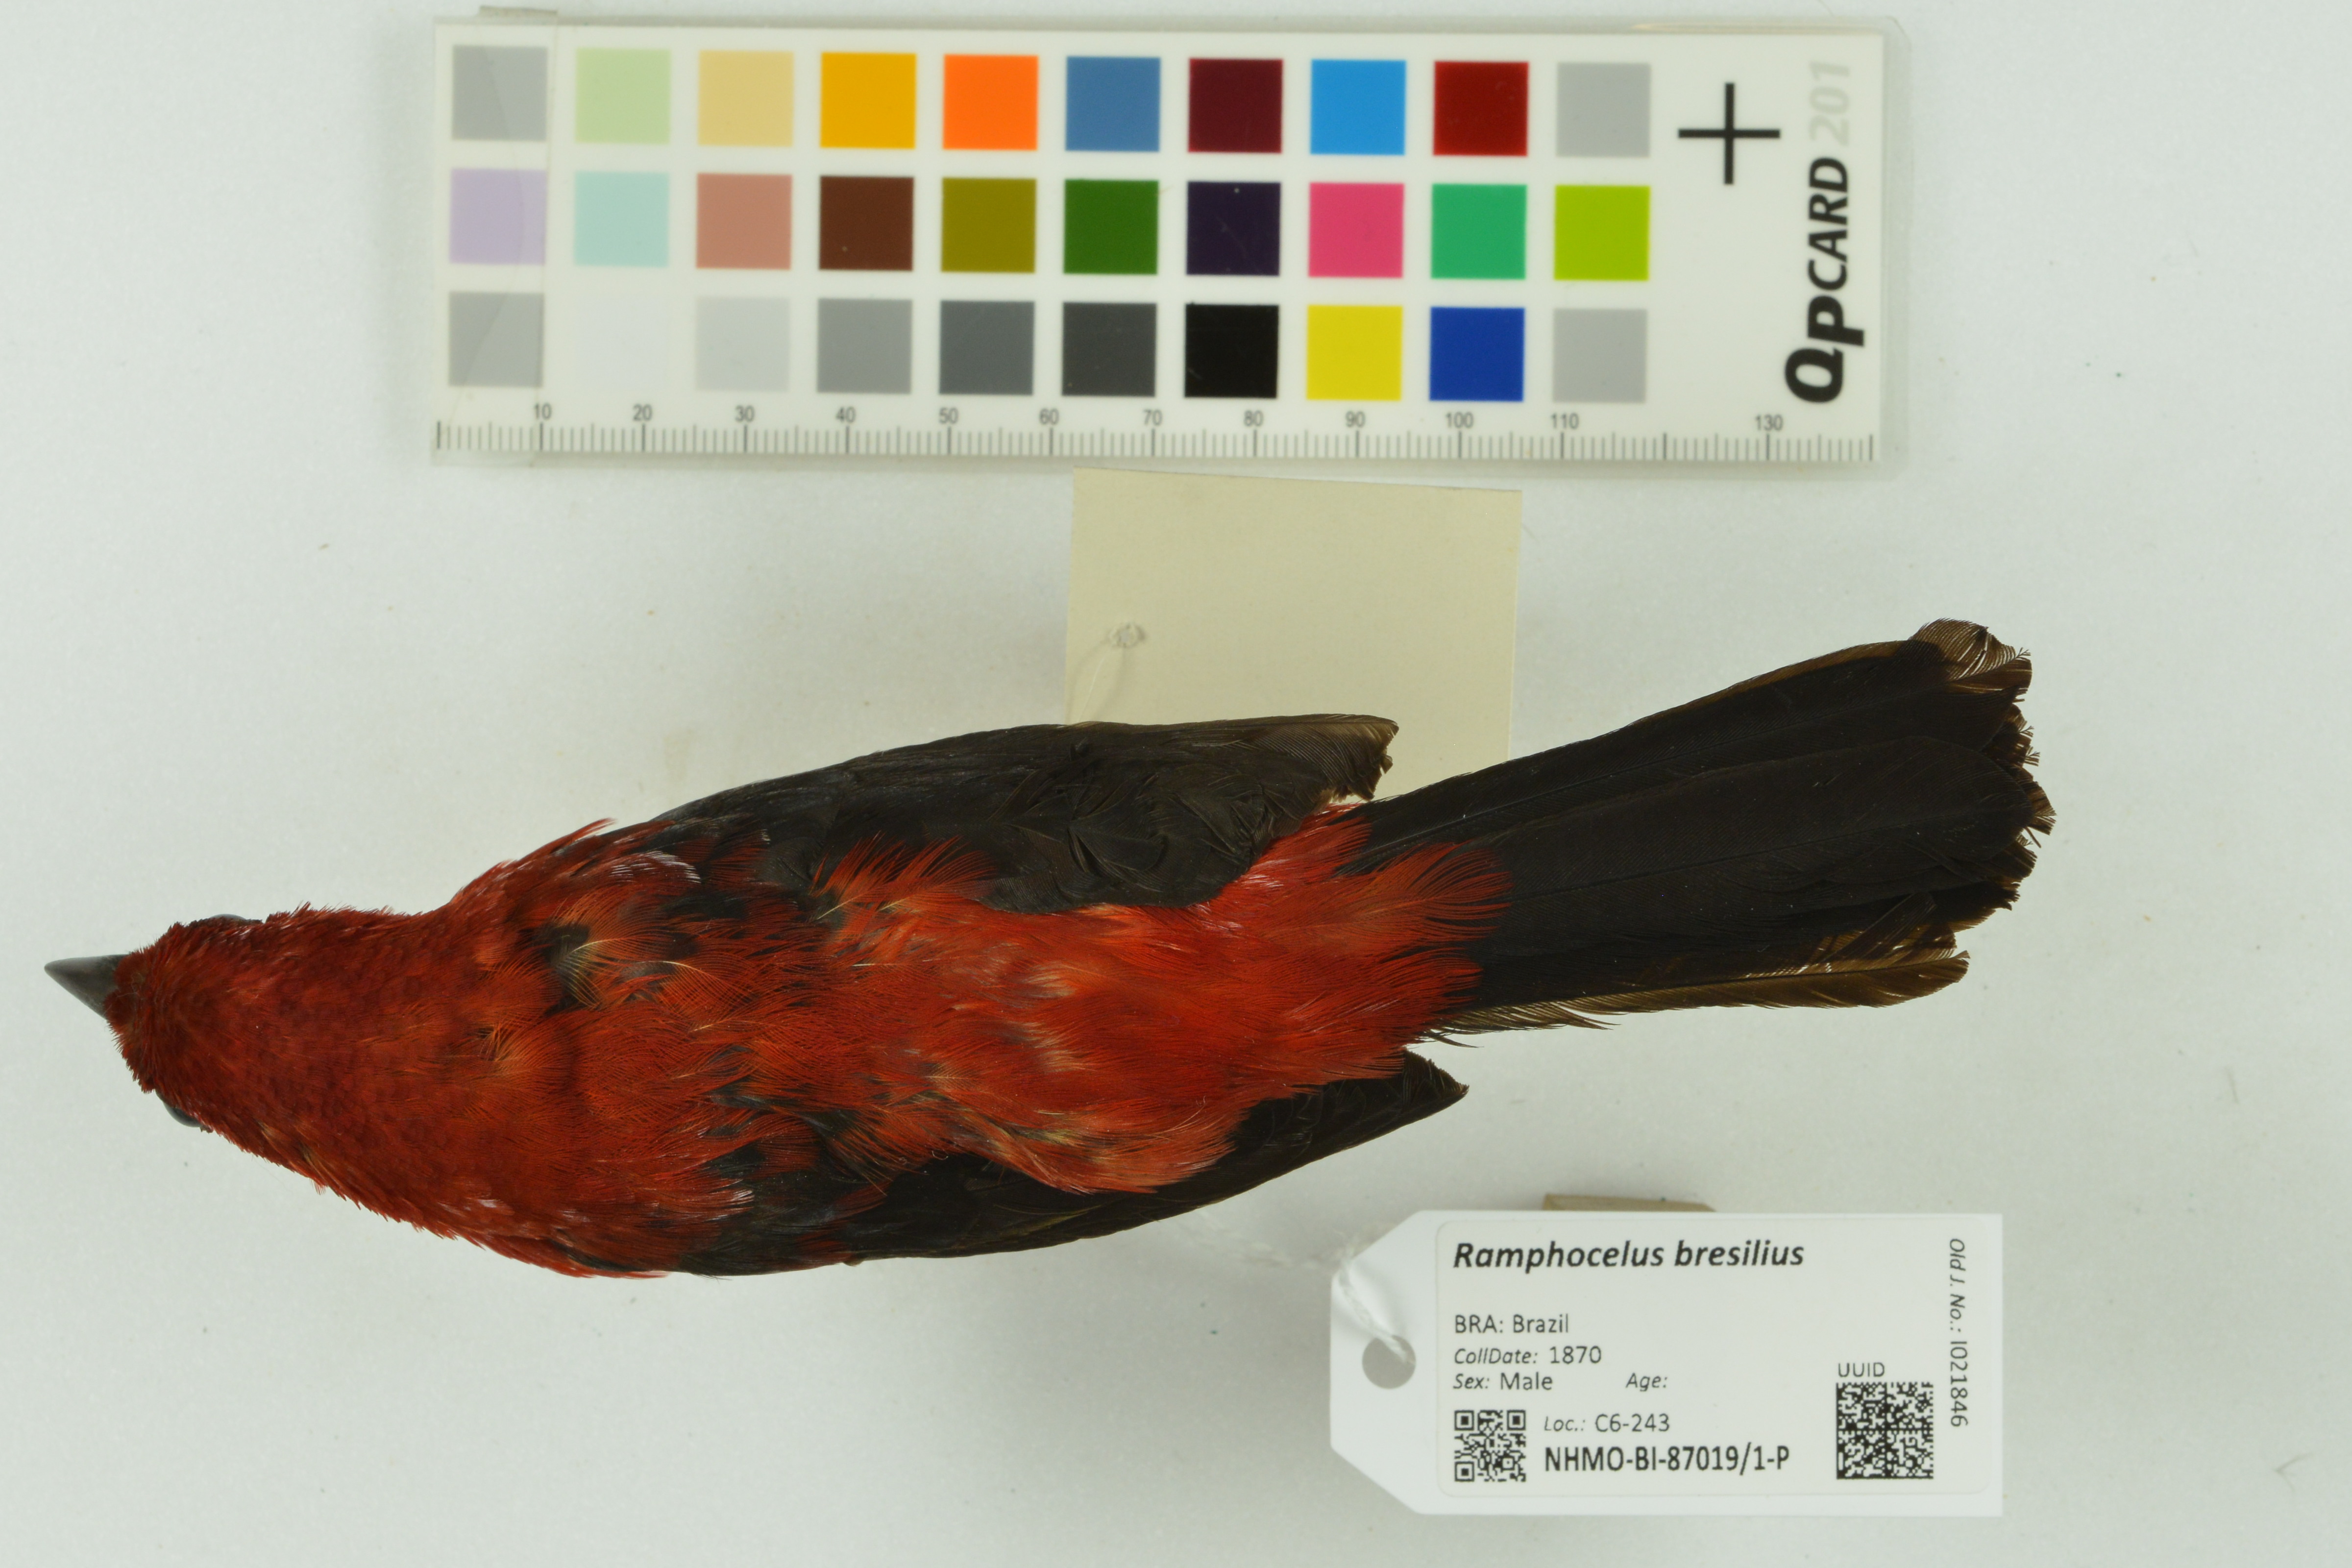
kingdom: Animalia
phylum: Chordata
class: Aves
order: Passeriformes
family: Thraupidae
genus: Ramphocelus
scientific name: Ramphocelus bresilia
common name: Brazilian tanager
